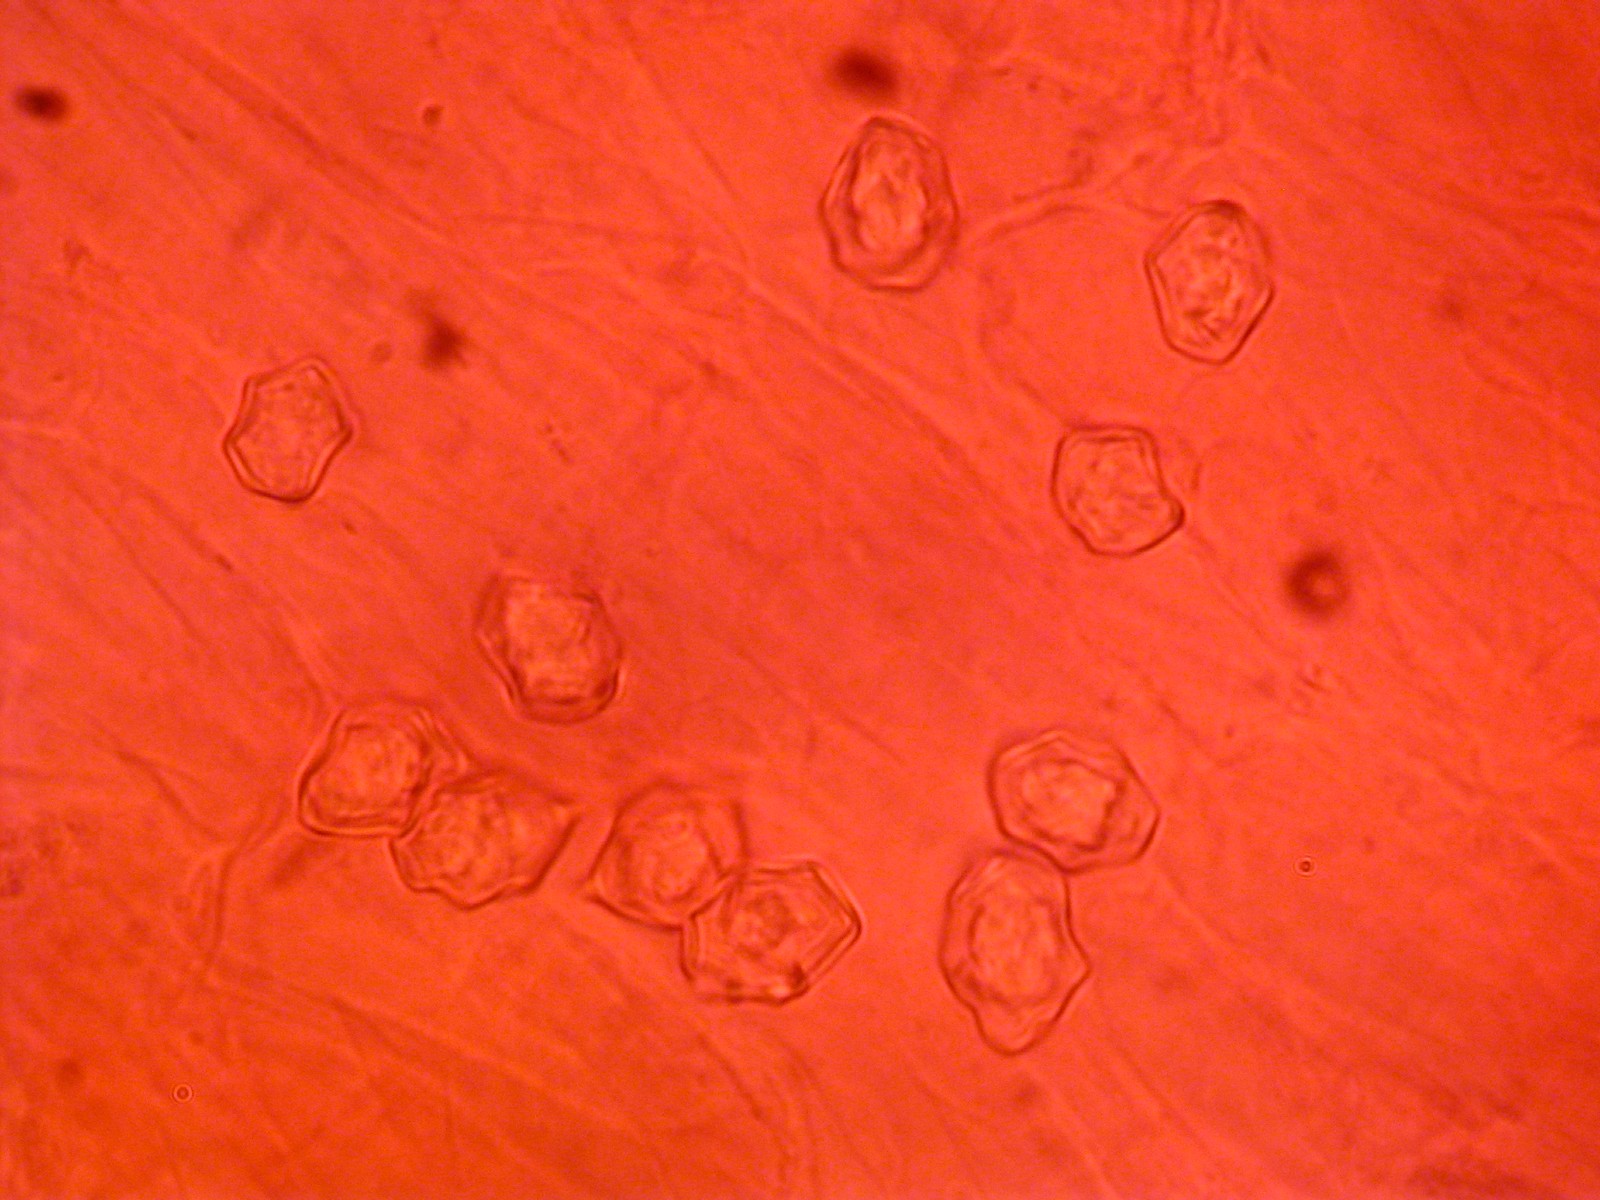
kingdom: Fungi
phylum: Basidiomycota
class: Agaricomycetes
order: Agaricales
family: Entolomataceae
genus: Entoloma
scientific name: Entoloma queletii
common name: rosalilla rødblad
